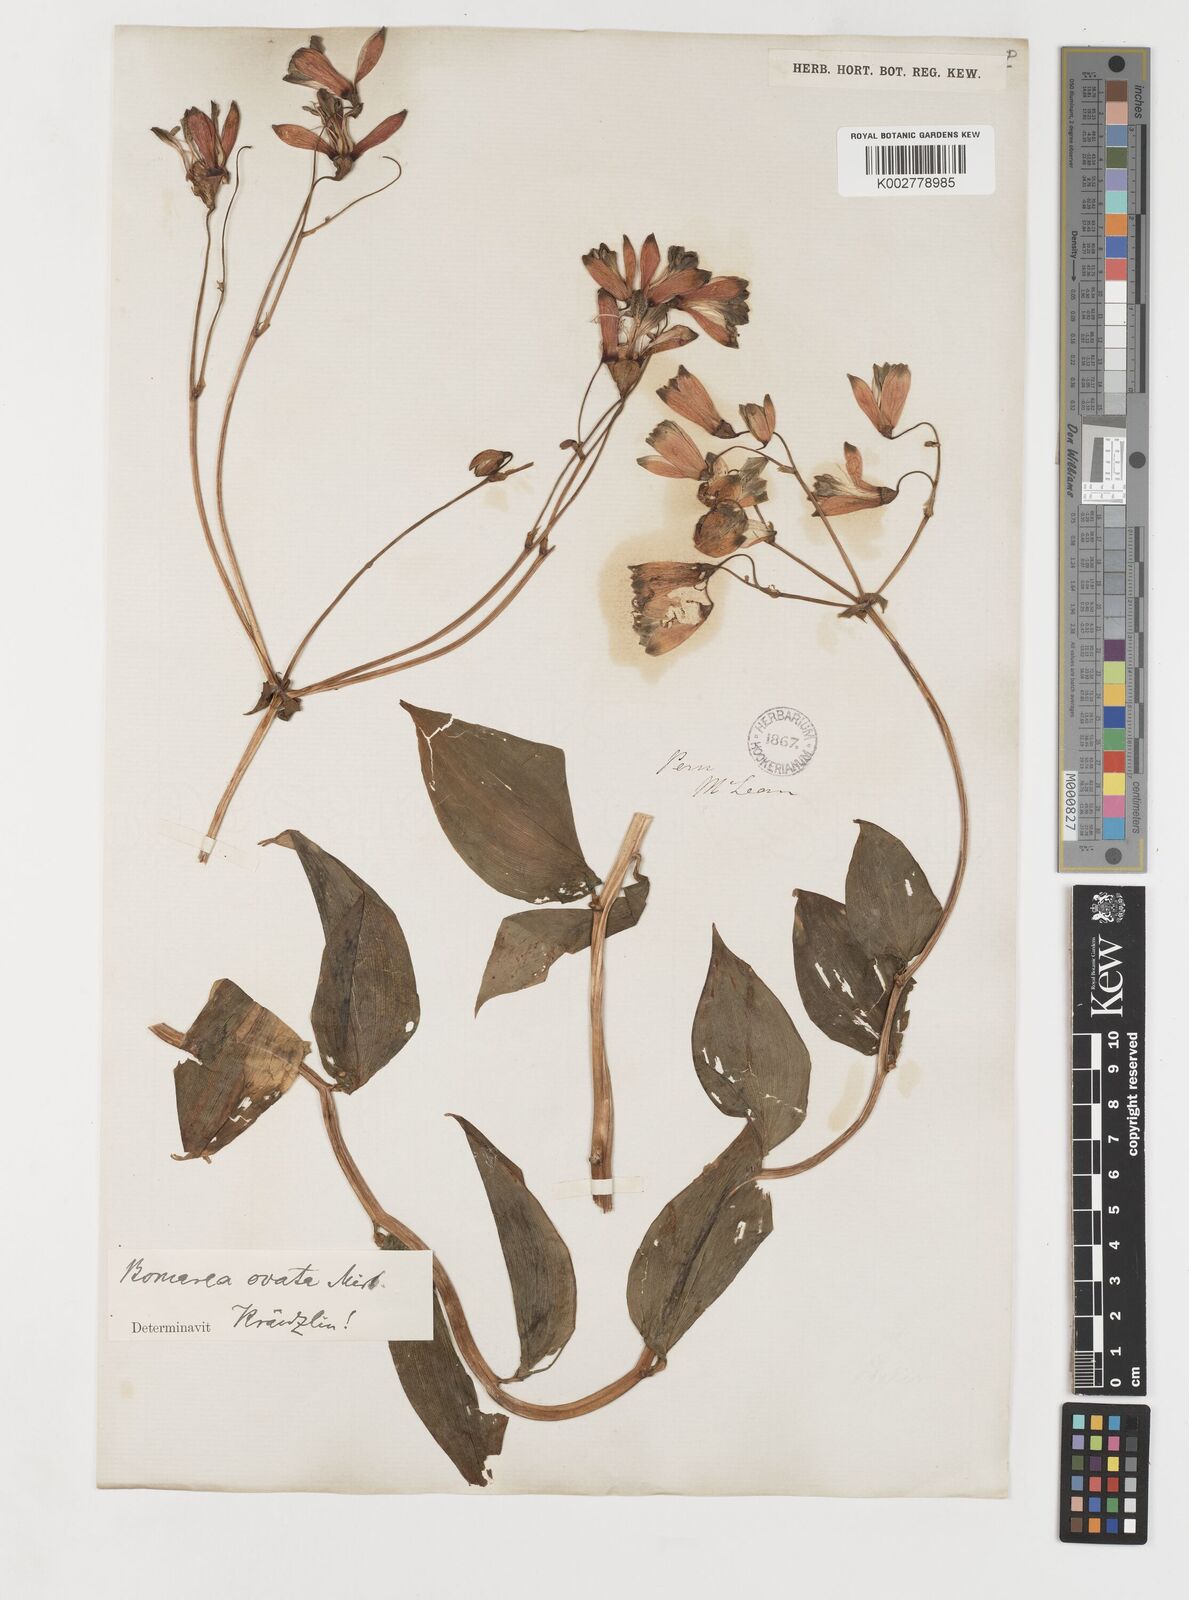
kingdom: Plantae
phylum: Tracheophyta
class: Liliopsida
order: Liliales
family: Alstroemeriaceae
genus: Bomarea
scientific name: Bomarea ovata
